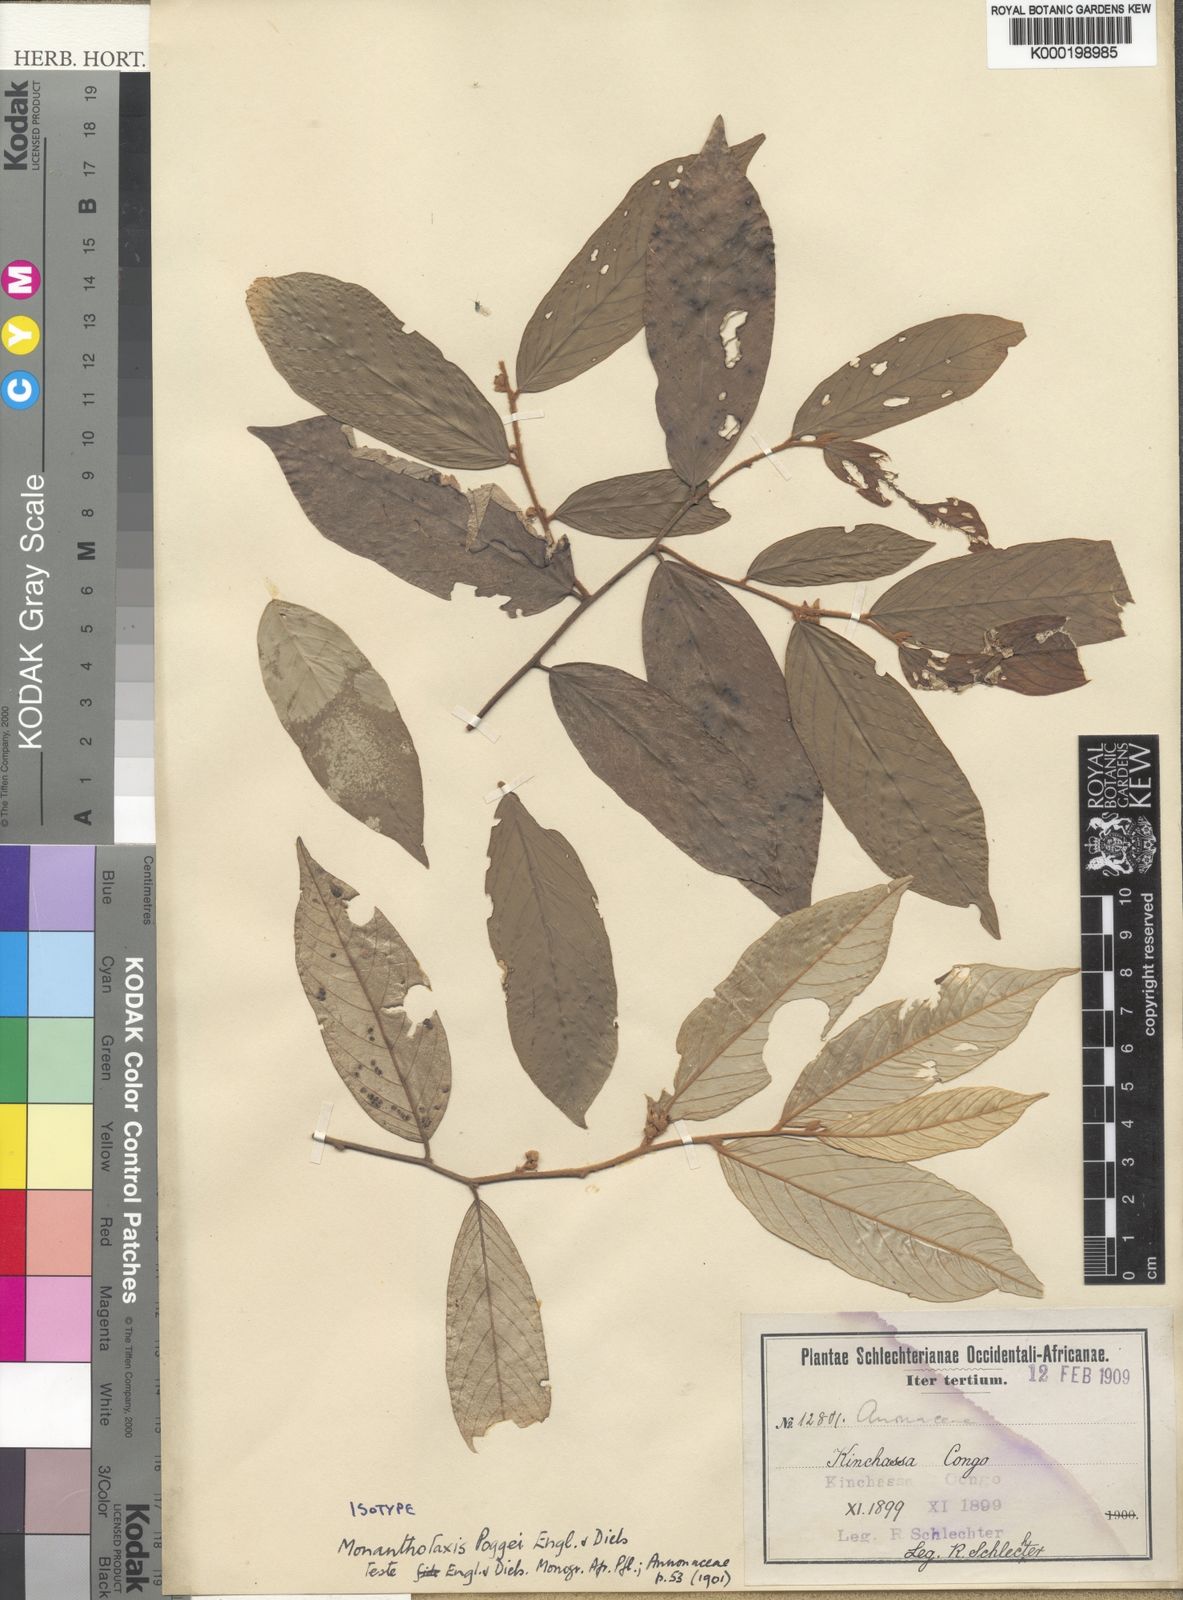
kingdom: Plantae
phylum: Tracheophyta
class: Magnoliopsida
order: Magnoliales
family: Annonaceae
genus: Monanthotaxis
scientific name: Monanthotaxis poggei
